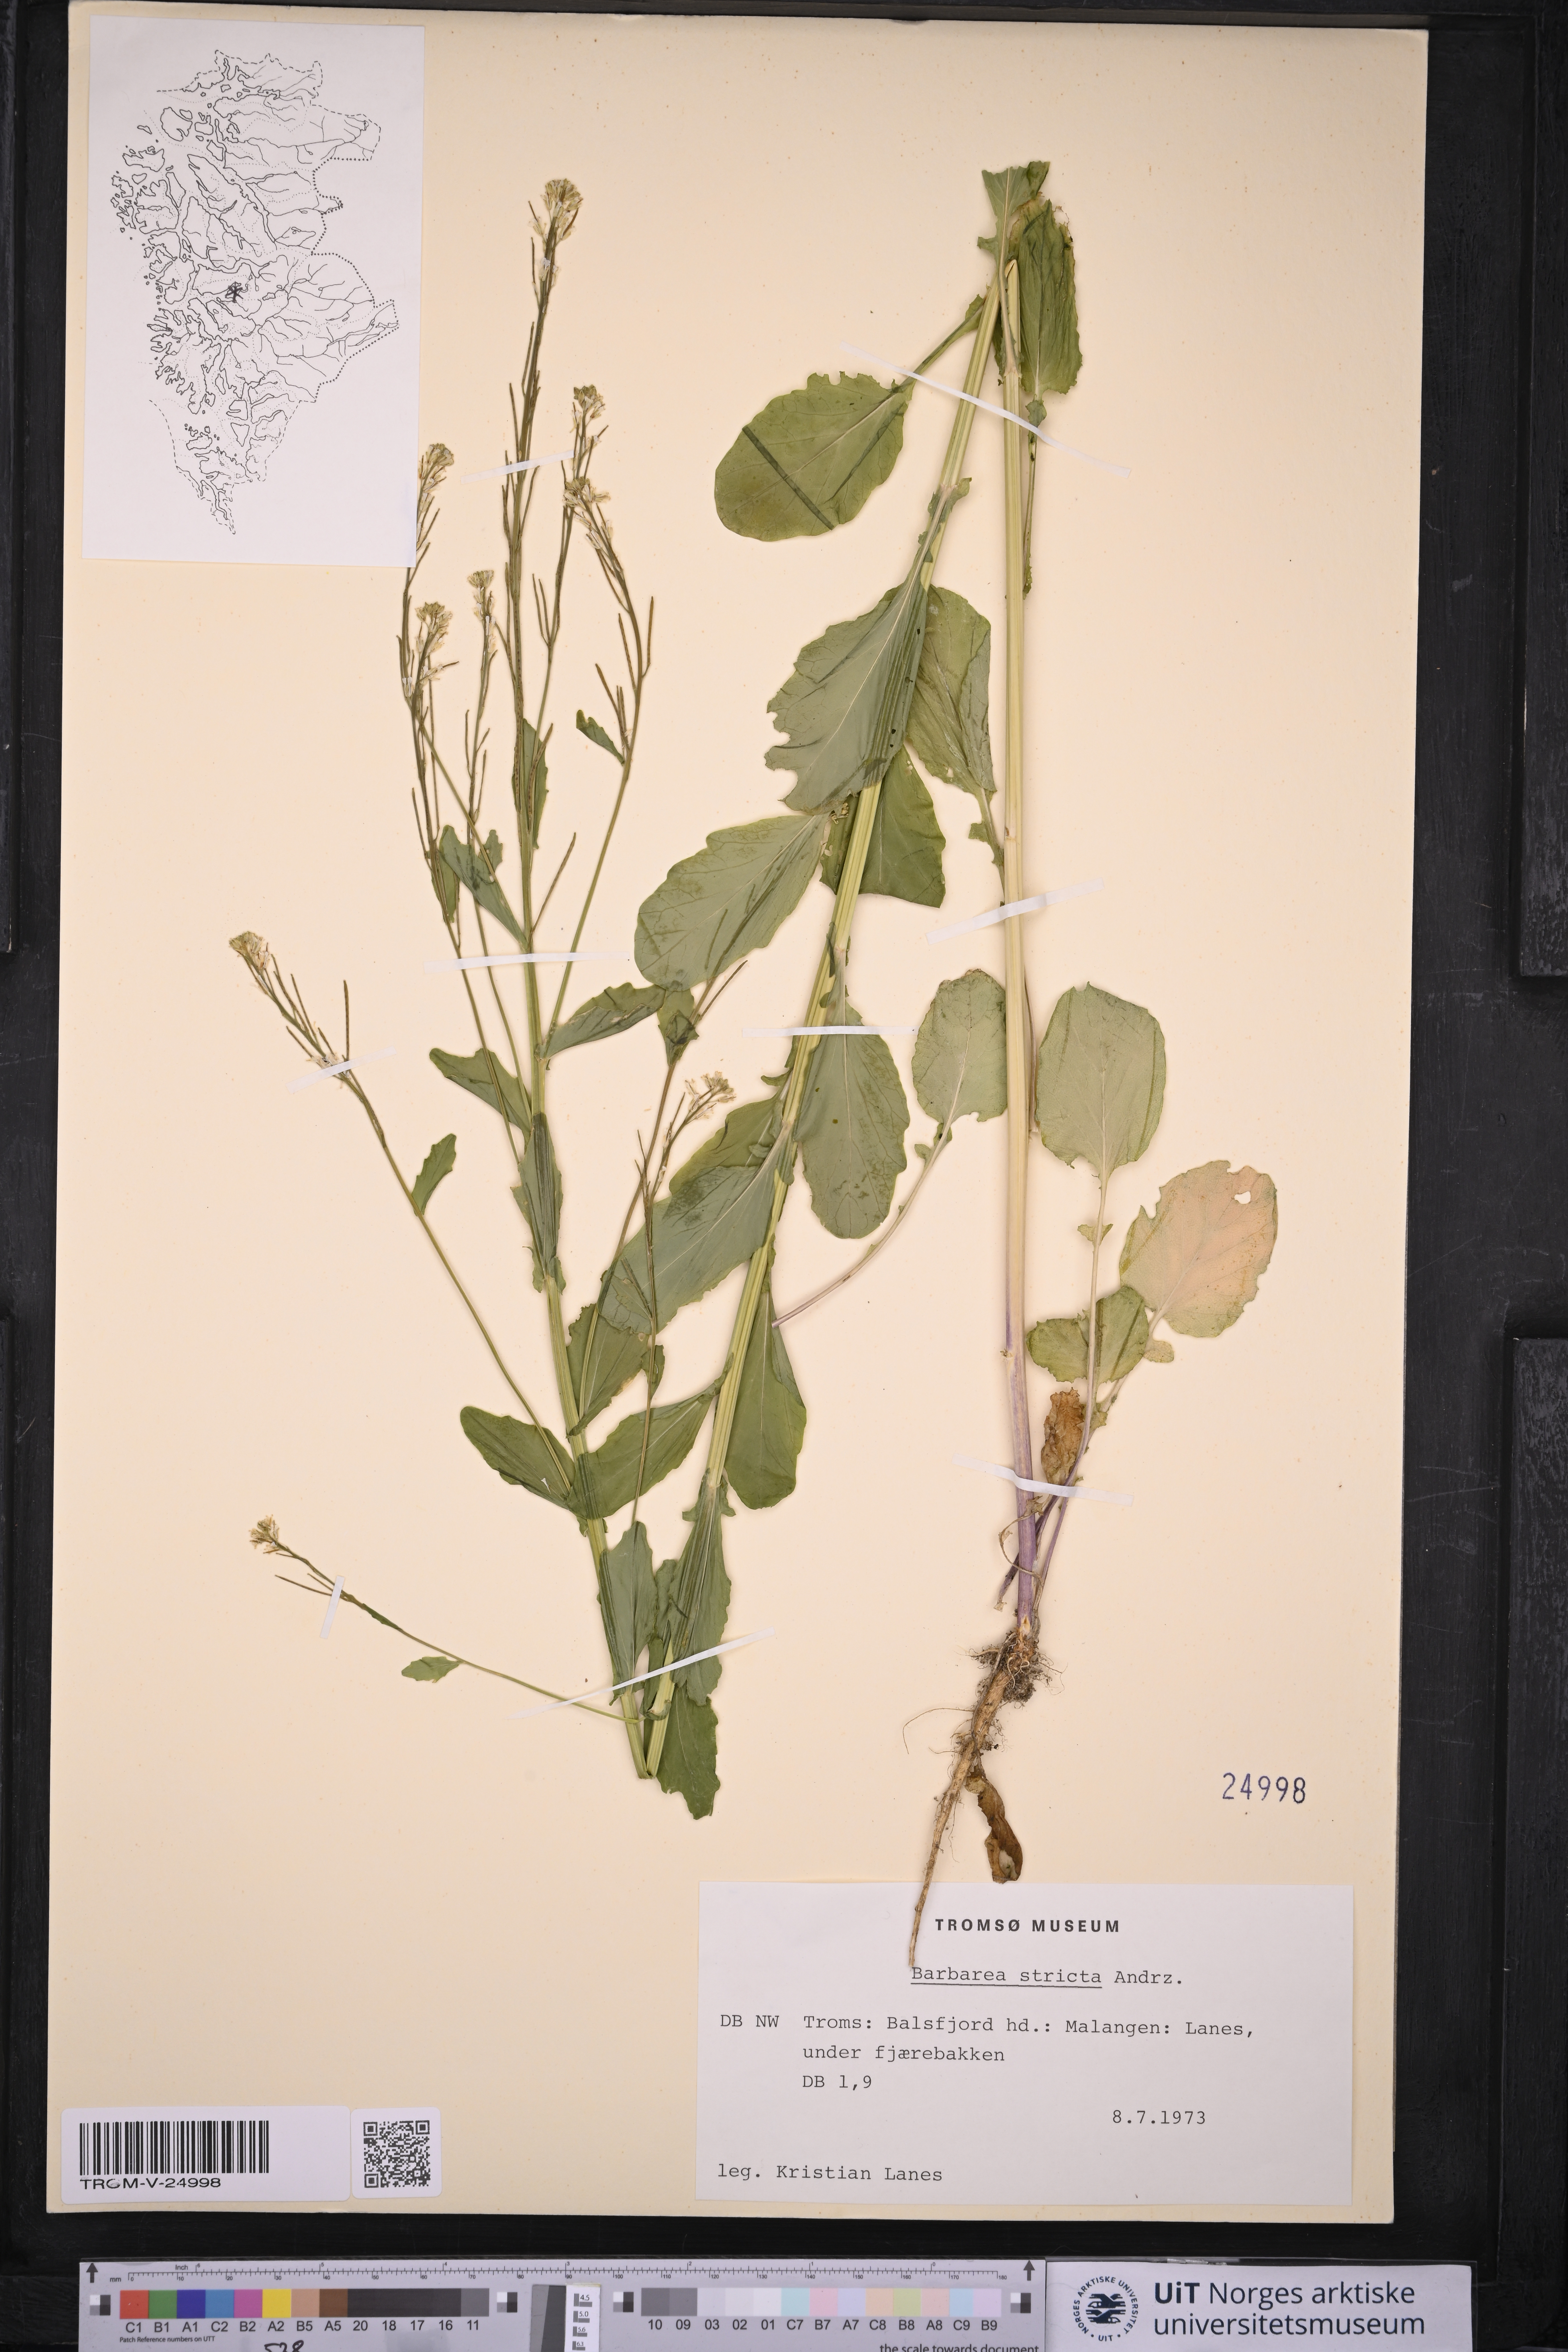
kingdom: Plantae
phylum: Tracheophyta
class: Magnoliopsida
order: Brassicales
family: Brassicaceae
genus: Barbarea
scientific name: Barbarea stricta
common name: Small-flowered winter-cress
